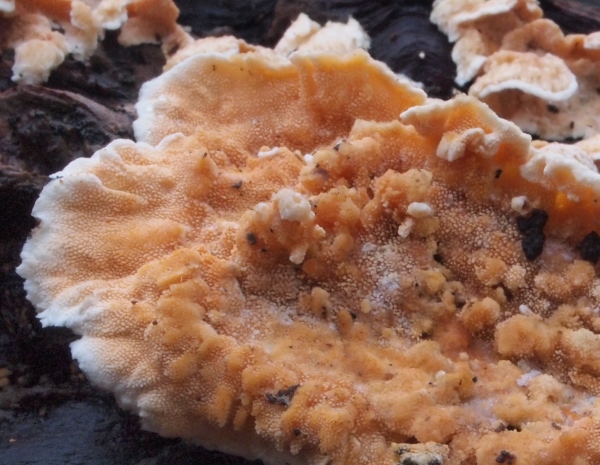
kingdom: Fungi
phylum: Basidiomycota
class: Agaricomycetes
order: Polyporales
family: Steccherinaceae
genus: Steccherinum
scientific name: Steccherinum ochraceum
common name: almindelig skønpig
